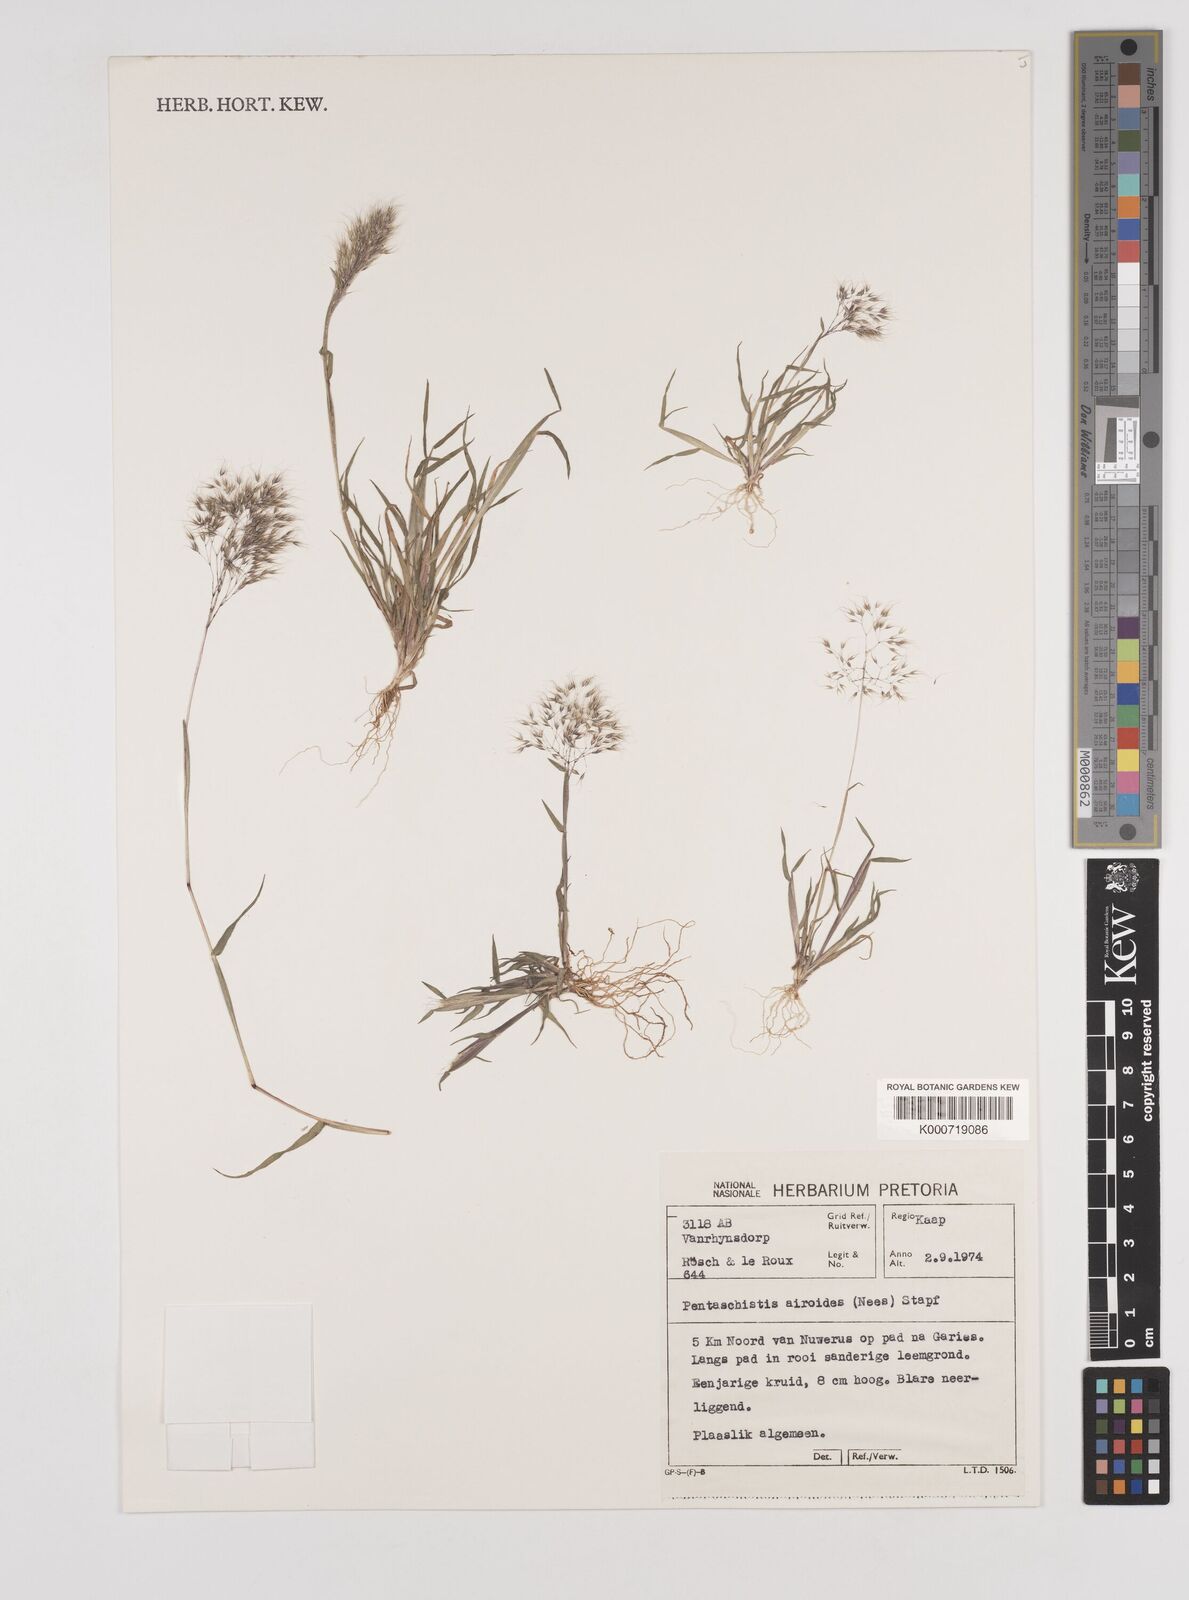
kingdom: Plantae
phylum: Tracheophyta
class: Liliopsida
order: Poales
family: Poaceae
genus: Pentameris
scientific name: Pentameris airoides
